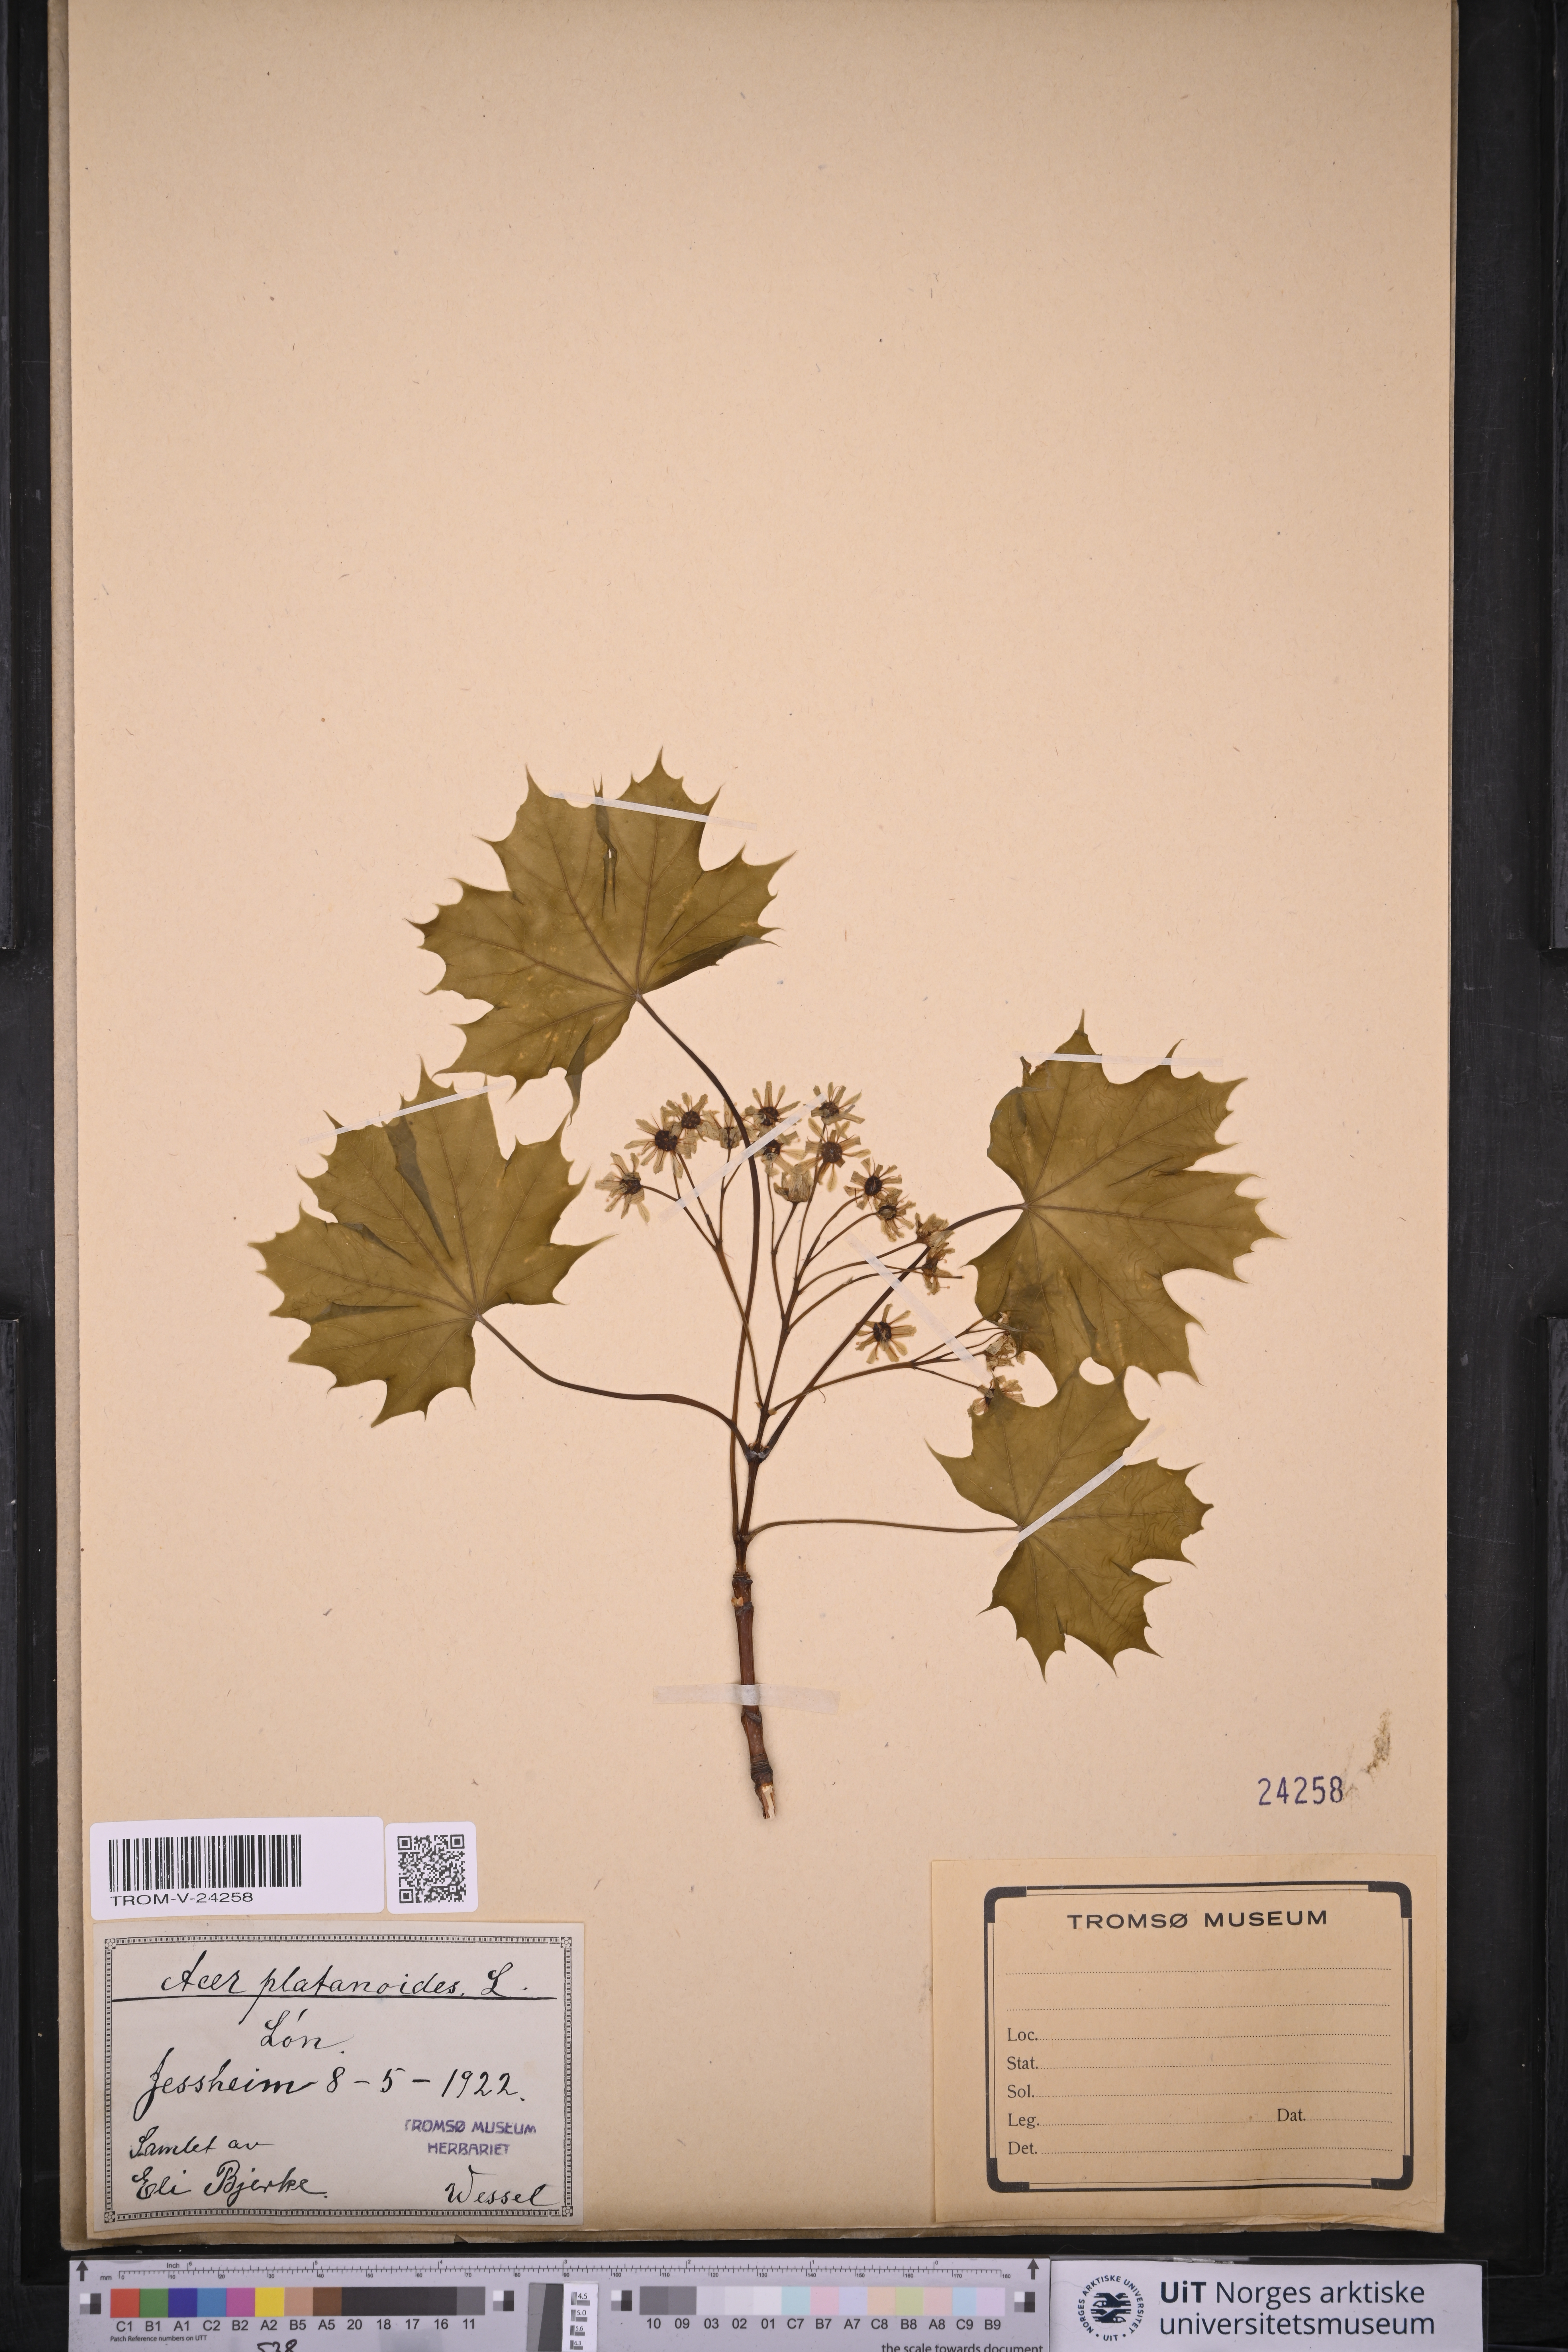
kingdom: Plantae
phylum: Tracheophyta
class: Magnoliopsida
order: Sapindales
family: Sapindaceae
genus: Acer
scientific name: Acer platanoides
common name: Norway maple
